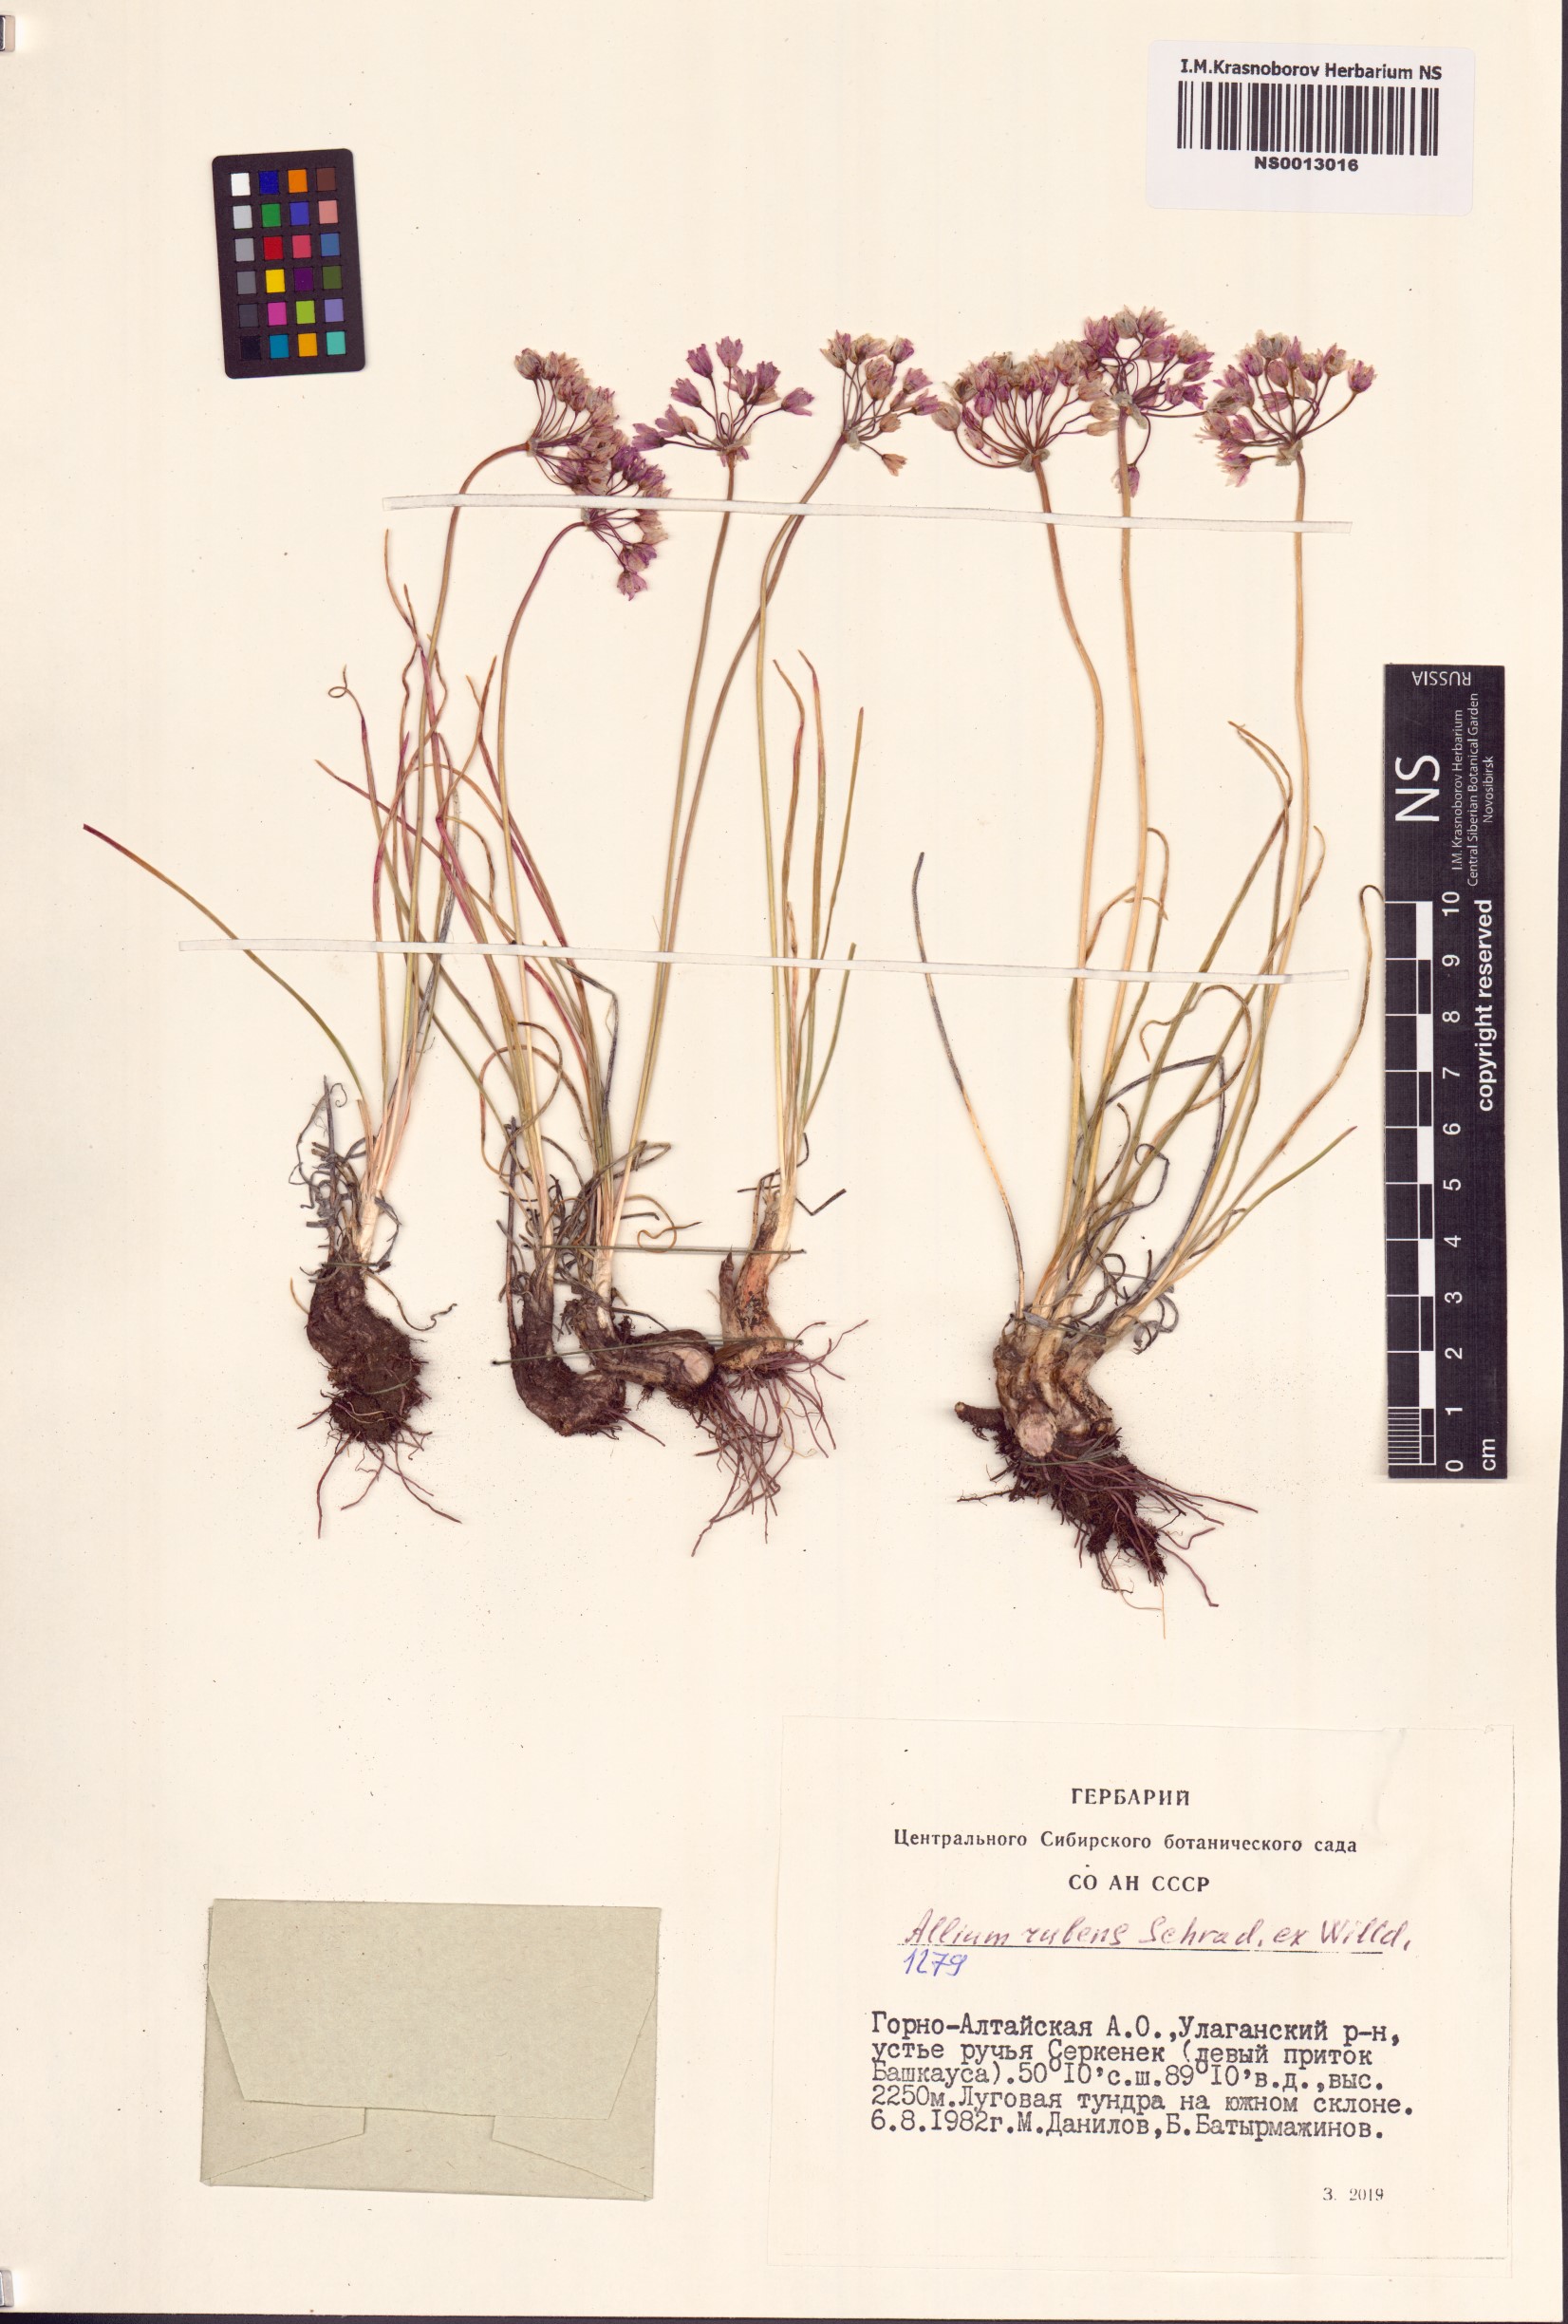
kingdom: Plantae
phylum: Tracheophyta
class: Liliopsida
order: Asparagales
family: Amaryllidaceae
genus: Allium
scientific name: Allium rubens
